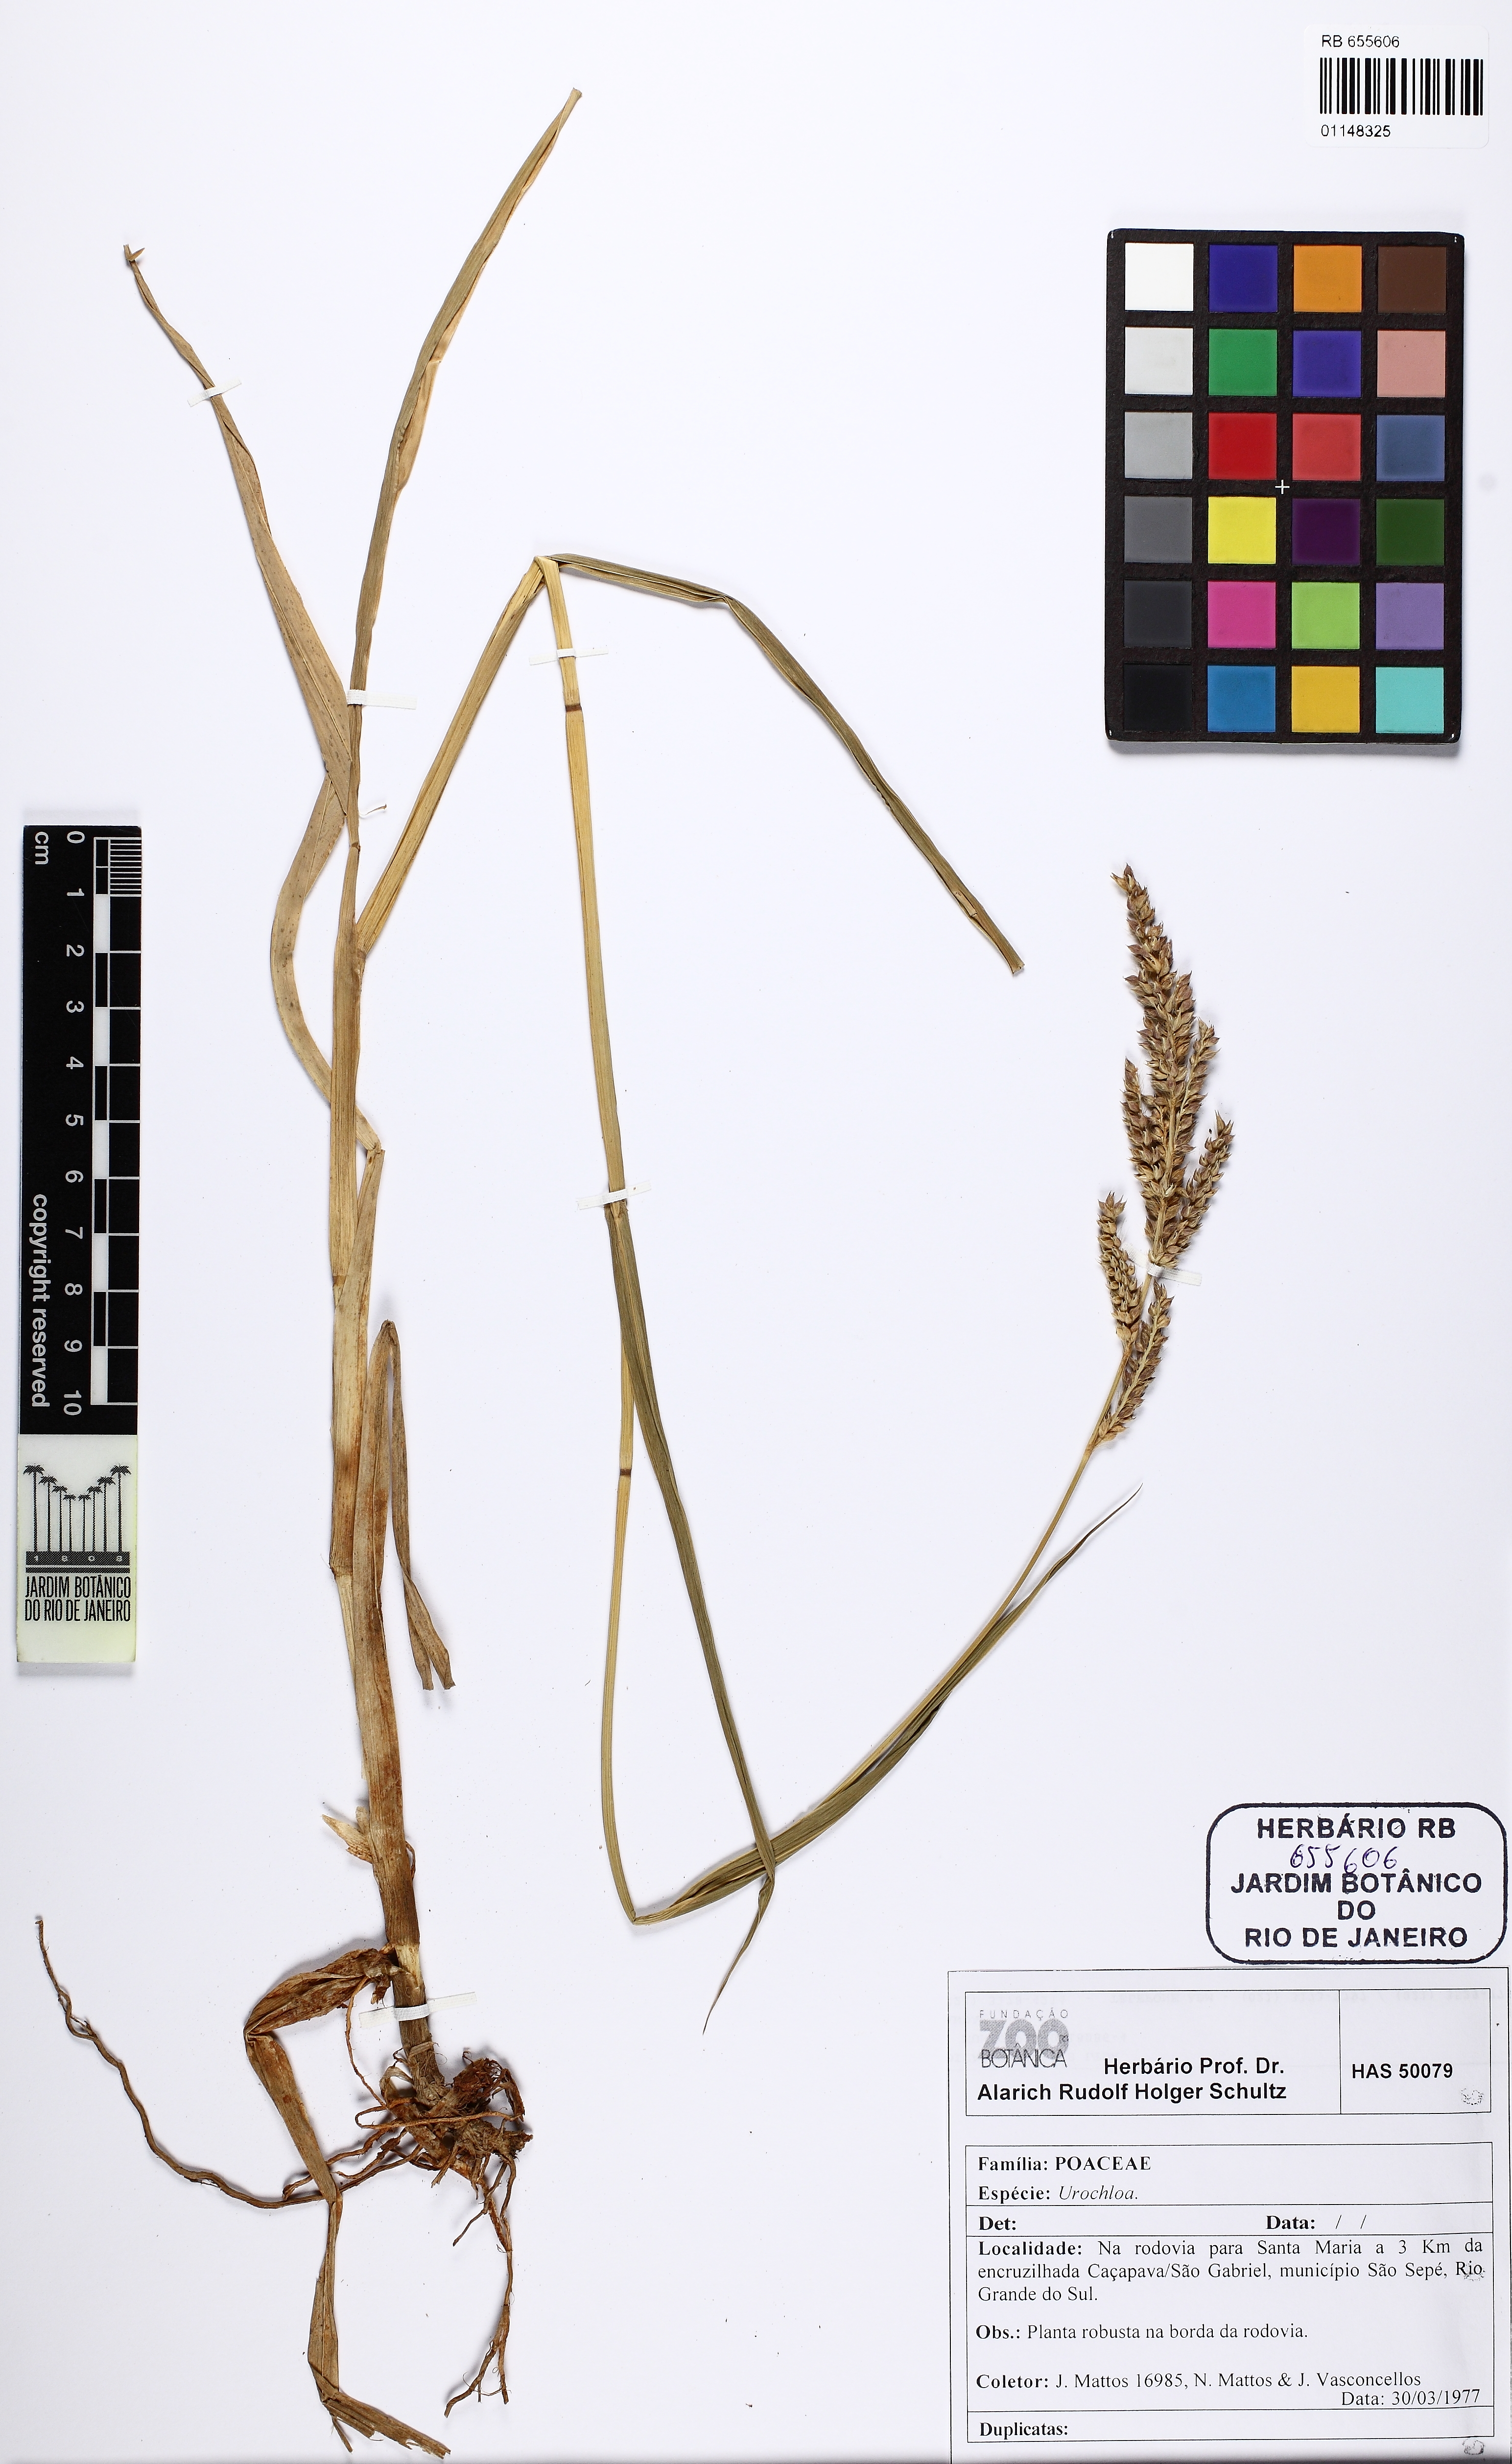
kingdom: Plantae
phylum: Tracheophyta
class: Liliopsida
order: Poales
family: Poaceae
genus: Urochloa
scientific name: Urochloa
